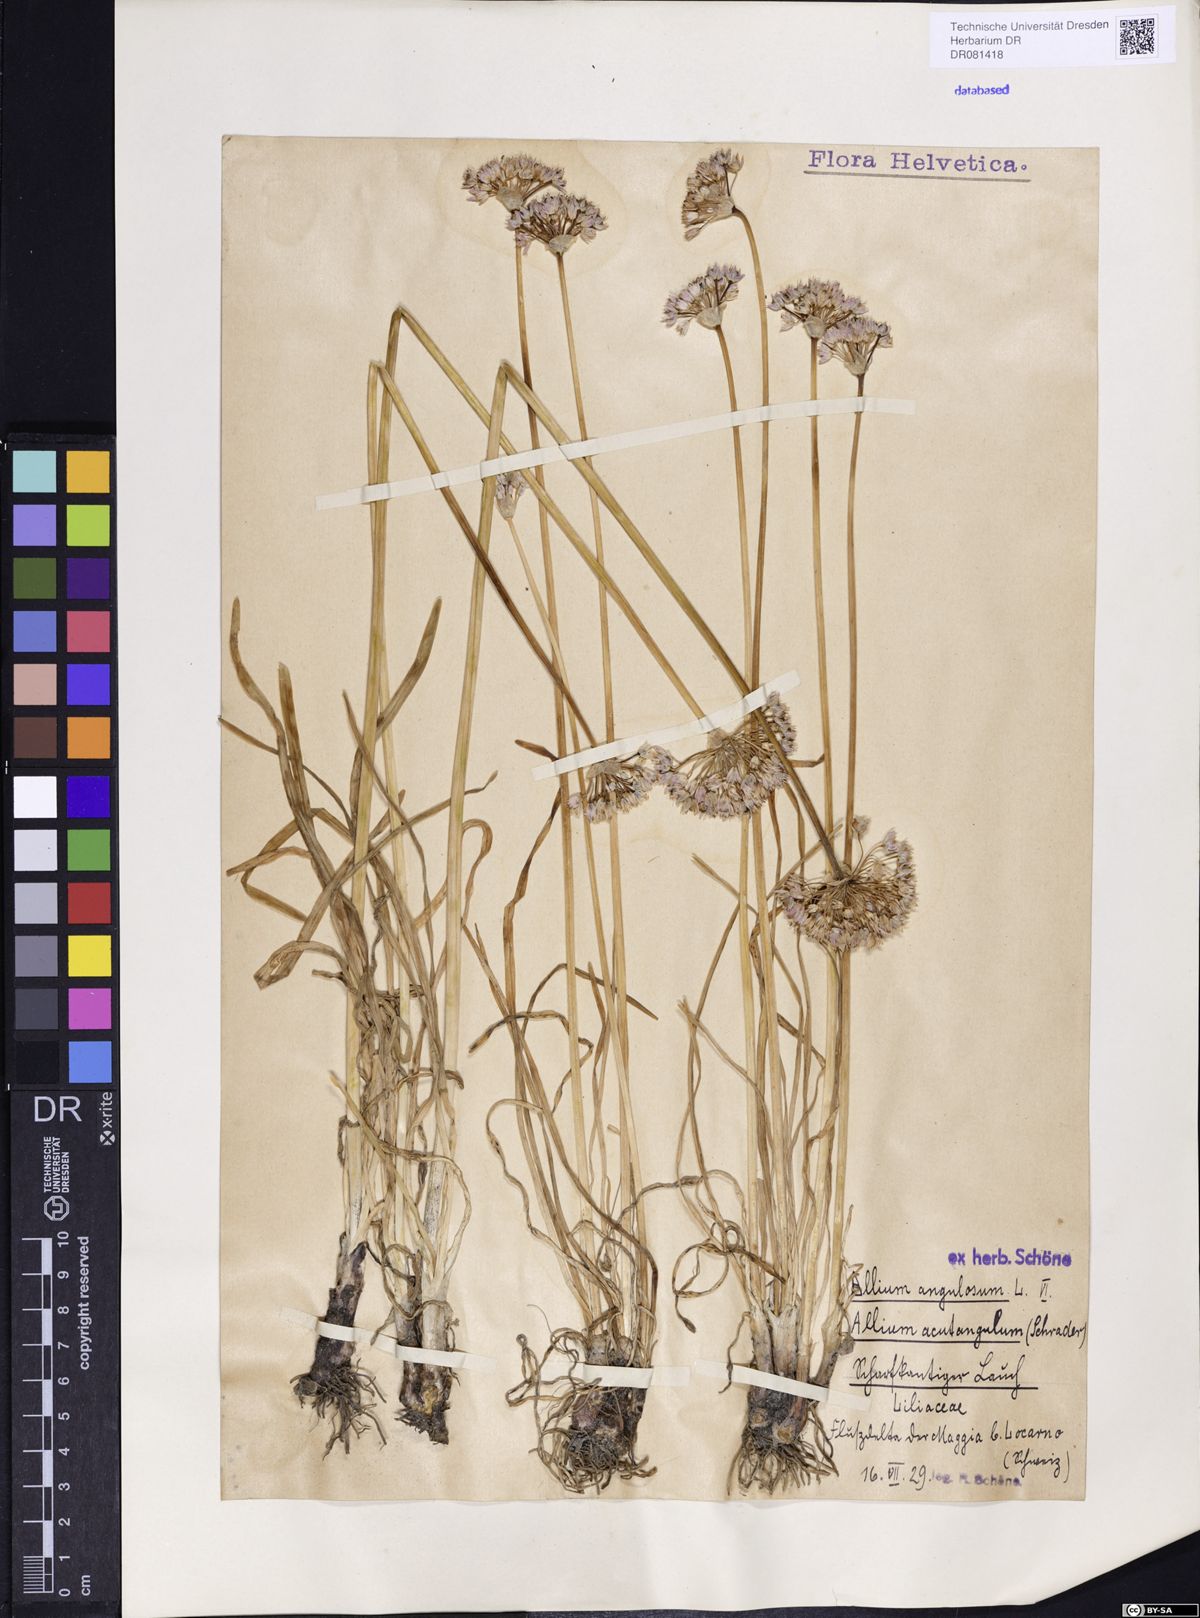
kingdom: Plantae
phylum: Tracheophyta
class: Liliopsida
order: Asparagales
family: Amaryllidaceae
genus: Allium
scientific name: Allium angulosum
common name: Mouse garlic
